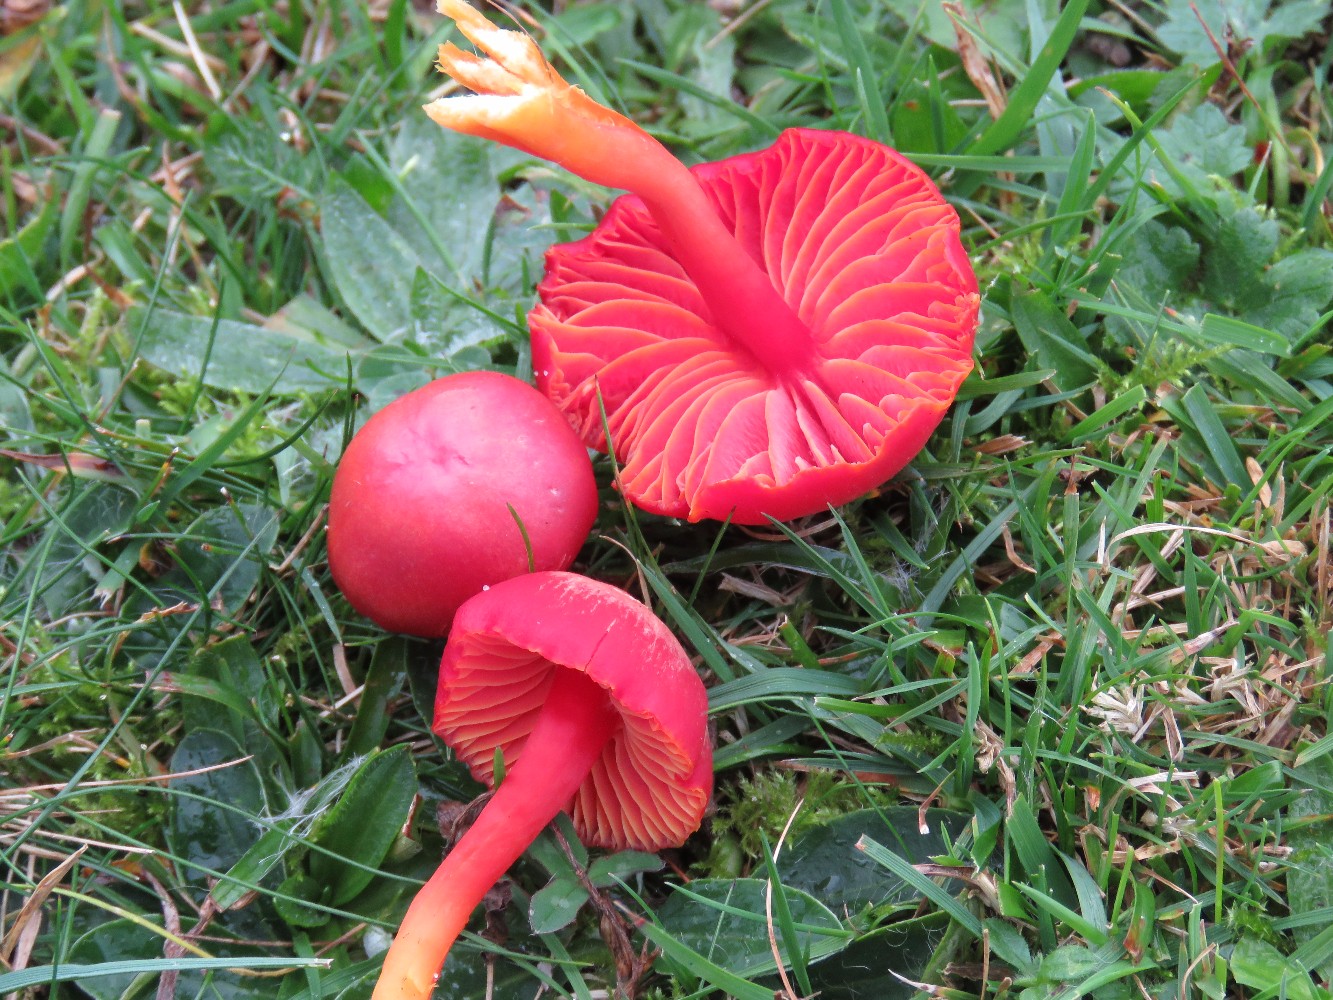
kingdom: Fungi
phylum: Basidiomycota
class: Agaricomycetes
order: Agaricales
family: Hygrophoraceae
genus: Hygrocybe
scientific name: Hygrocybe coccinea
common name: cinnober-vokshat
